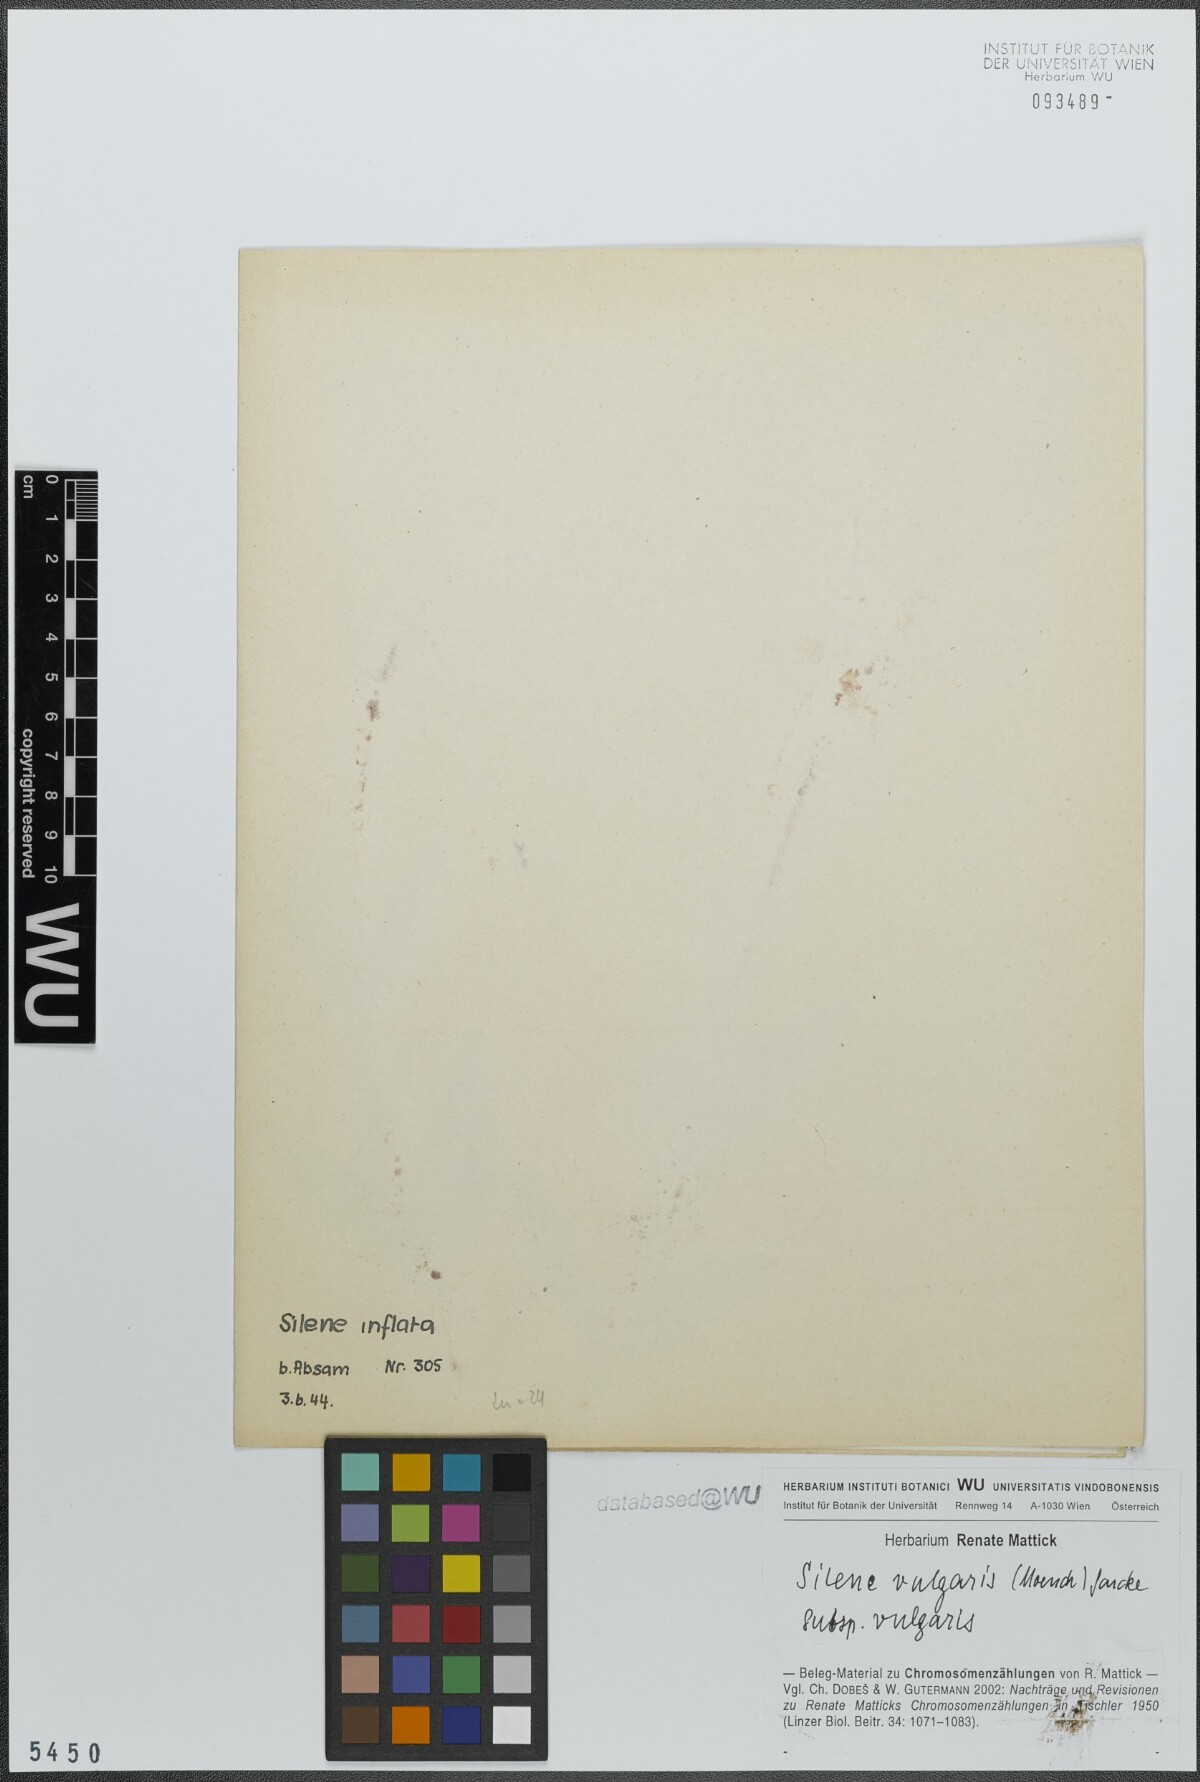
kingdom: Plantae
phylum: Tracheophyta
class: Magnoliopsida
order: Caryophyllales
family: Caryophyllaceae
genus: Silene
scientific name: Silene vulgaris
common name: Bladder campion
